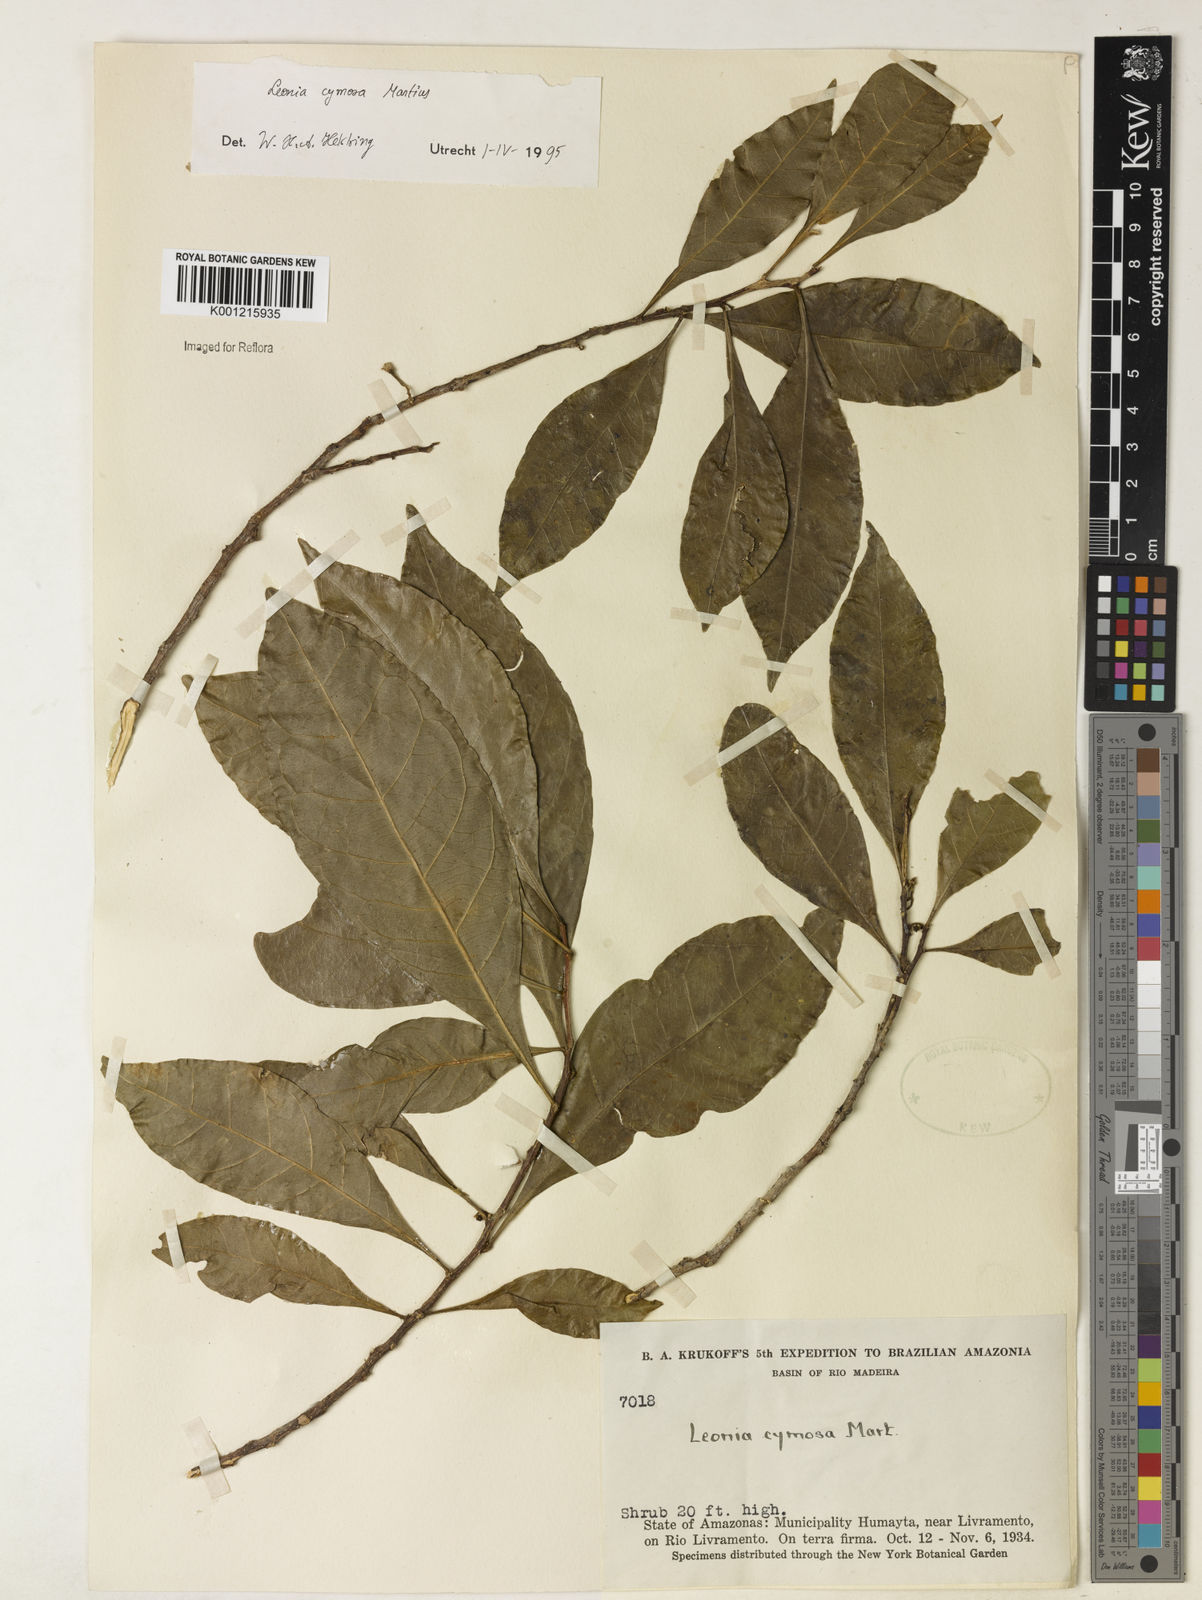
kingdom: Plantae
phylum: Tracheophyta
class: Magnoliopsida
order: Malpighiales
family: Violaceae
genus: Leonia
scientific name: Leonia cymosa
